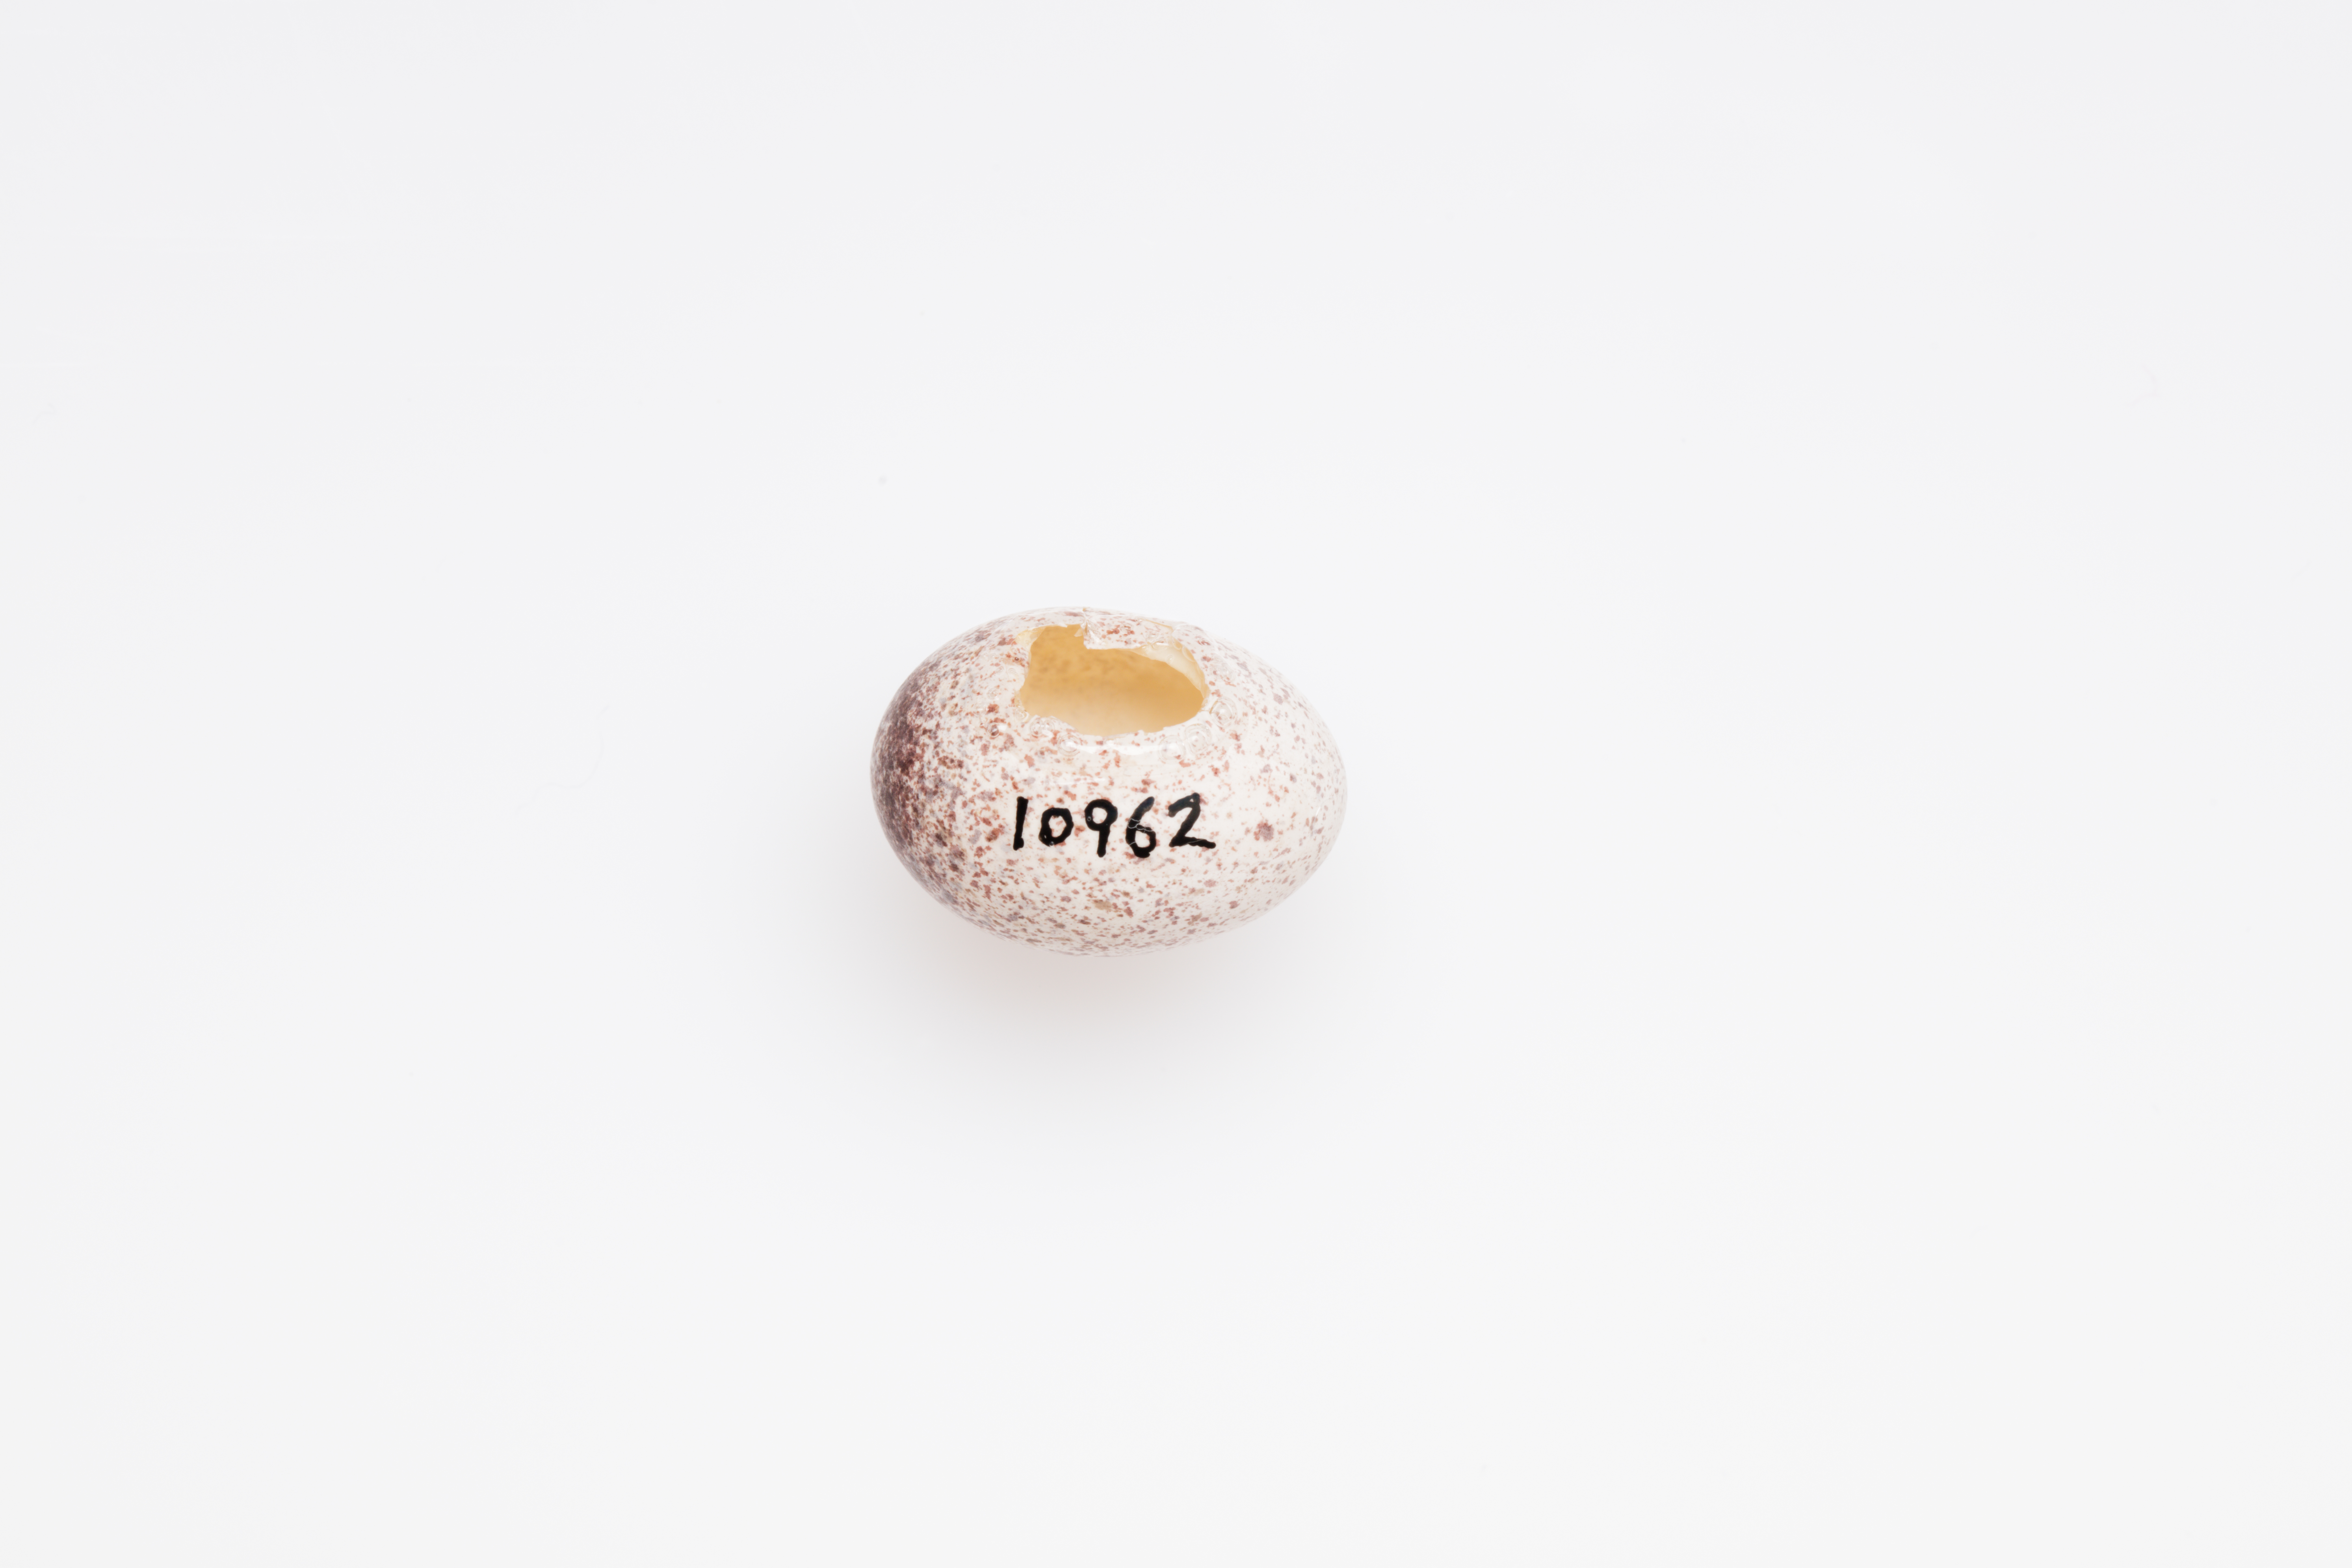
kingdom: Animalia
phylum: Chordata
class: Aves
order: Passeriformes
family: Locustellidae
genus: Megalurus
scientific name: Megalurus punctatus
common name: New zealand fernbird
